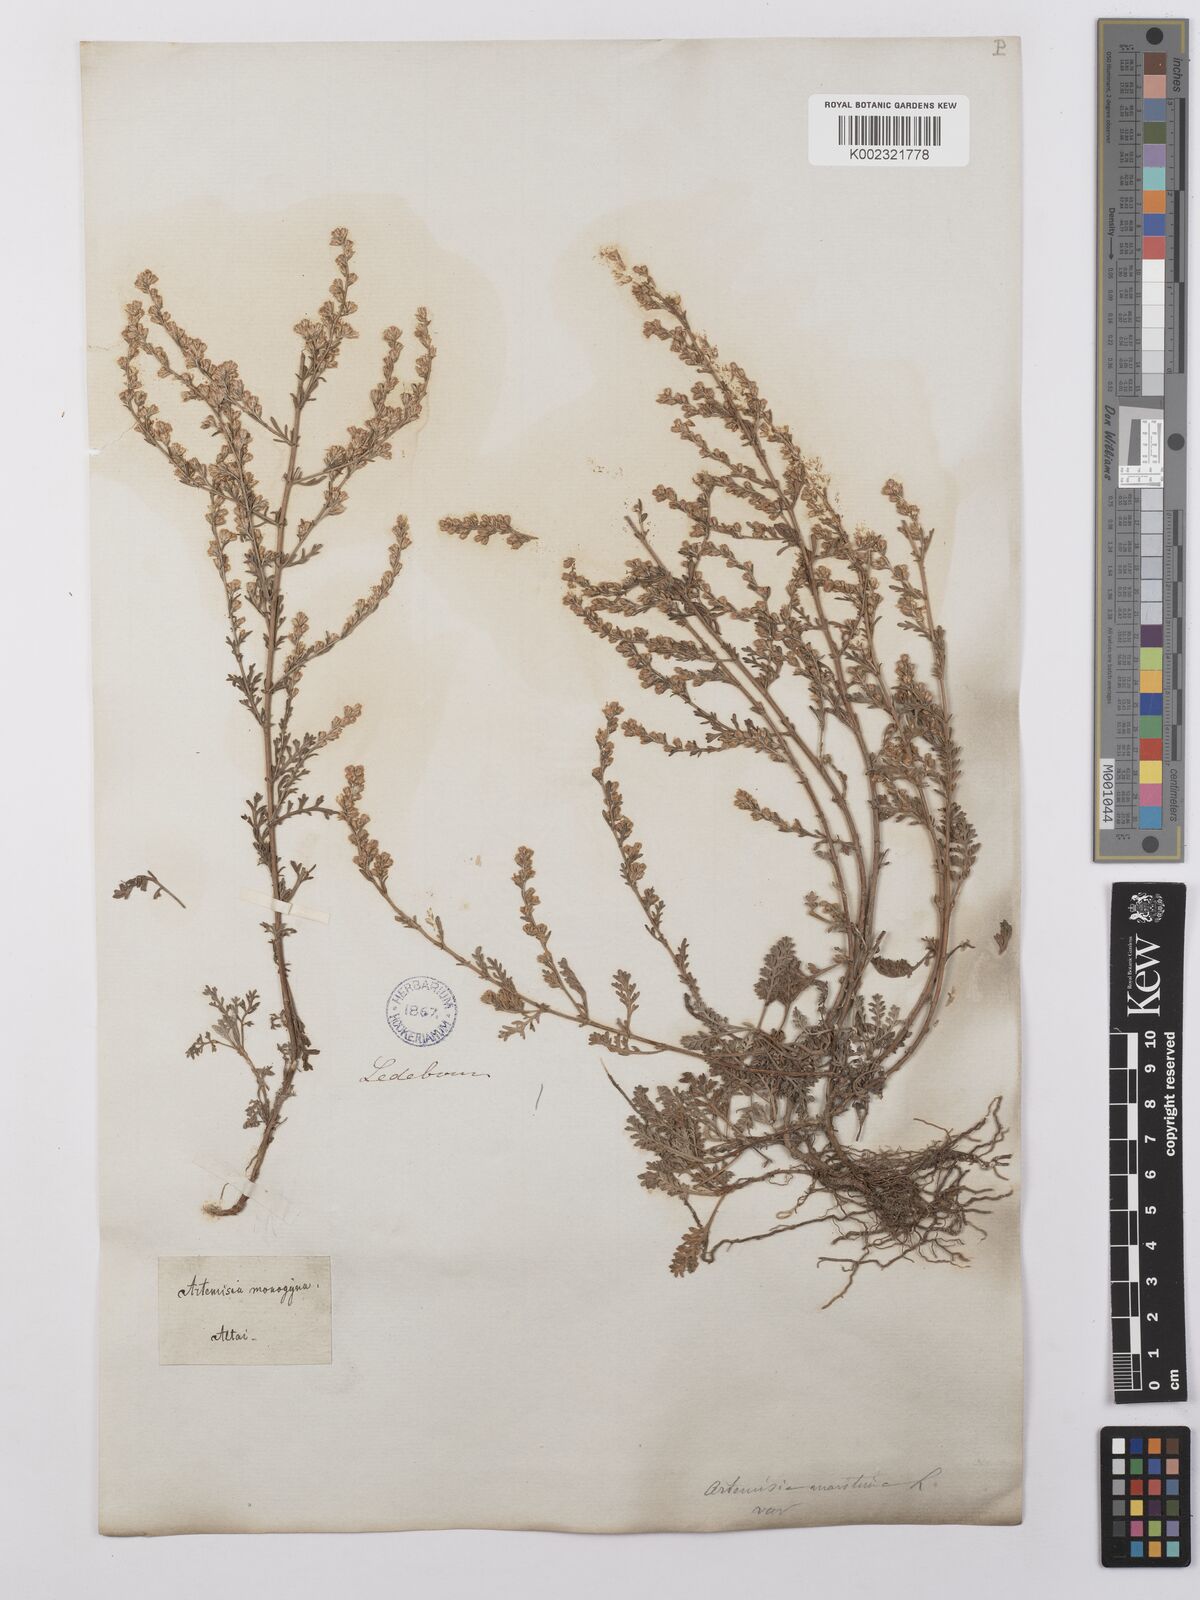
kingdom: Plantae
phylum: Tracheophyta
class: Magnoliopsida
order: Asterales
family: Asteraceae
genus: Artemisia
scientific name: Artemisia santonicum
